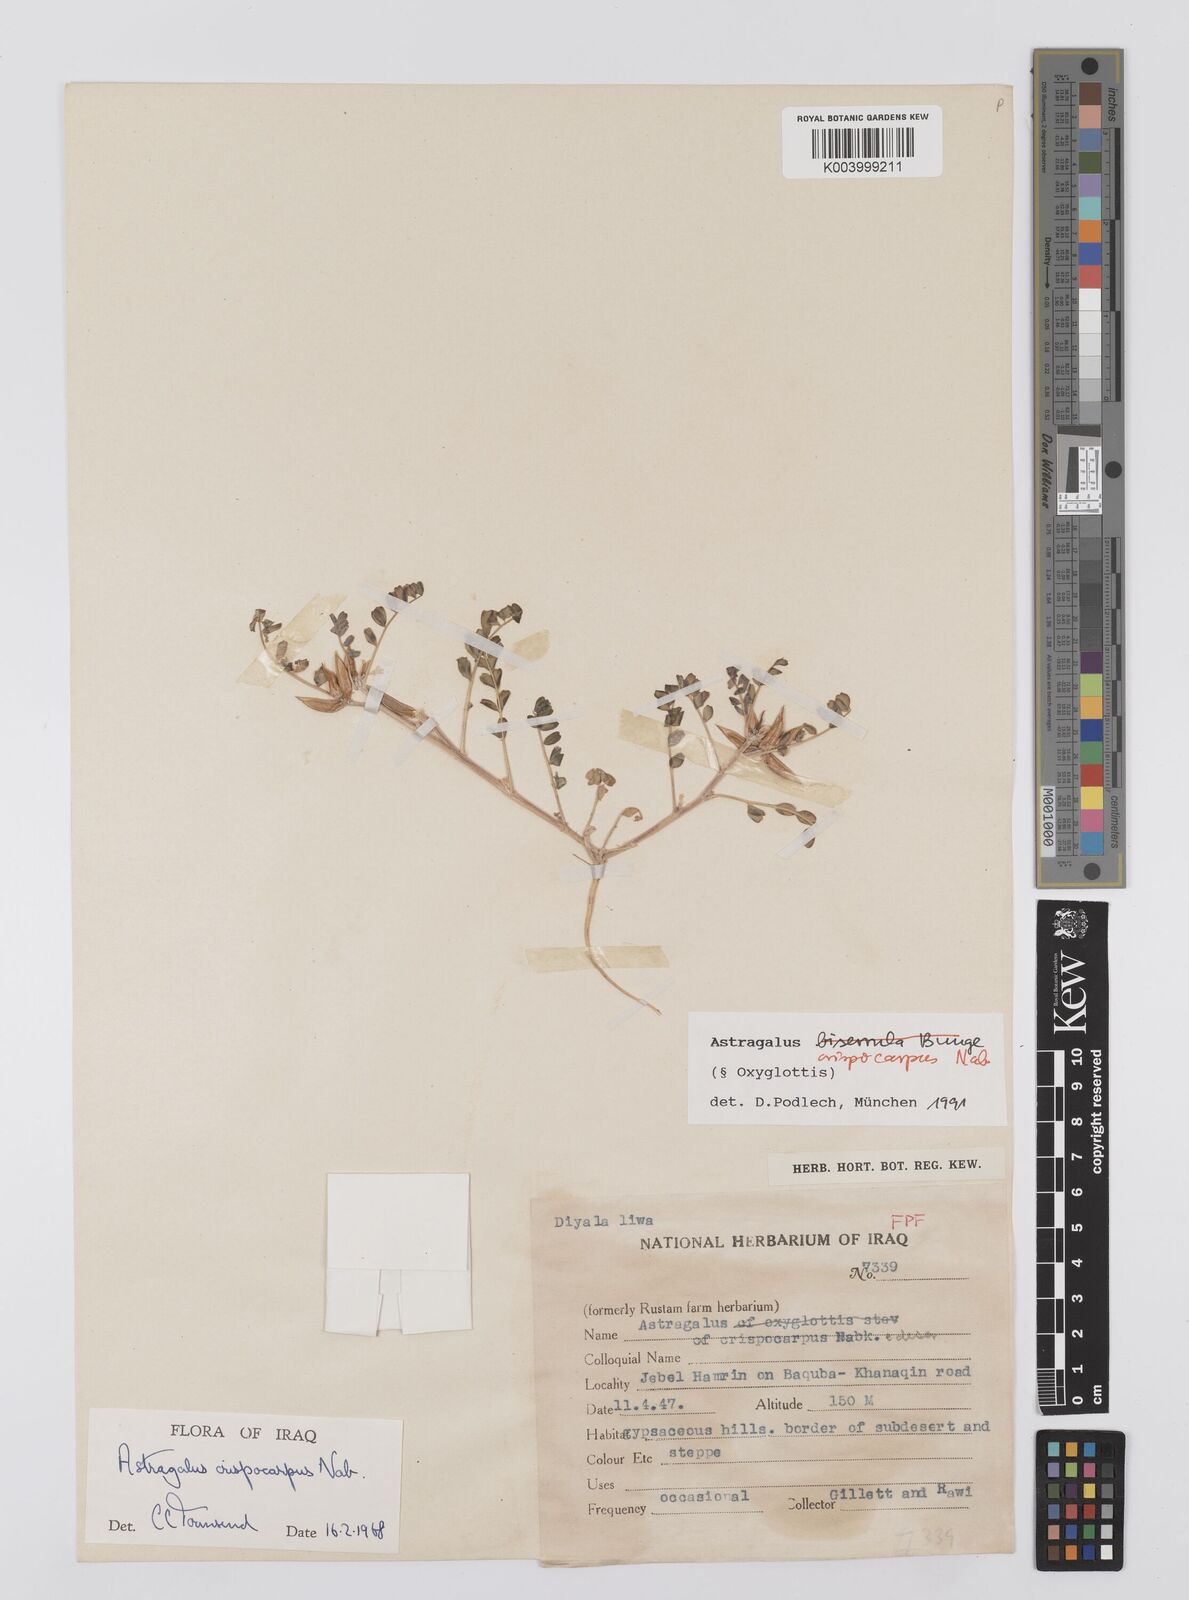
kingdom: Plantae
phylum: Tracheophyta
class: Magnoliopsida
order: Fabales
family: Fabaceae
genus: Astragalus
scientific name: Astragalus crispocarpus
